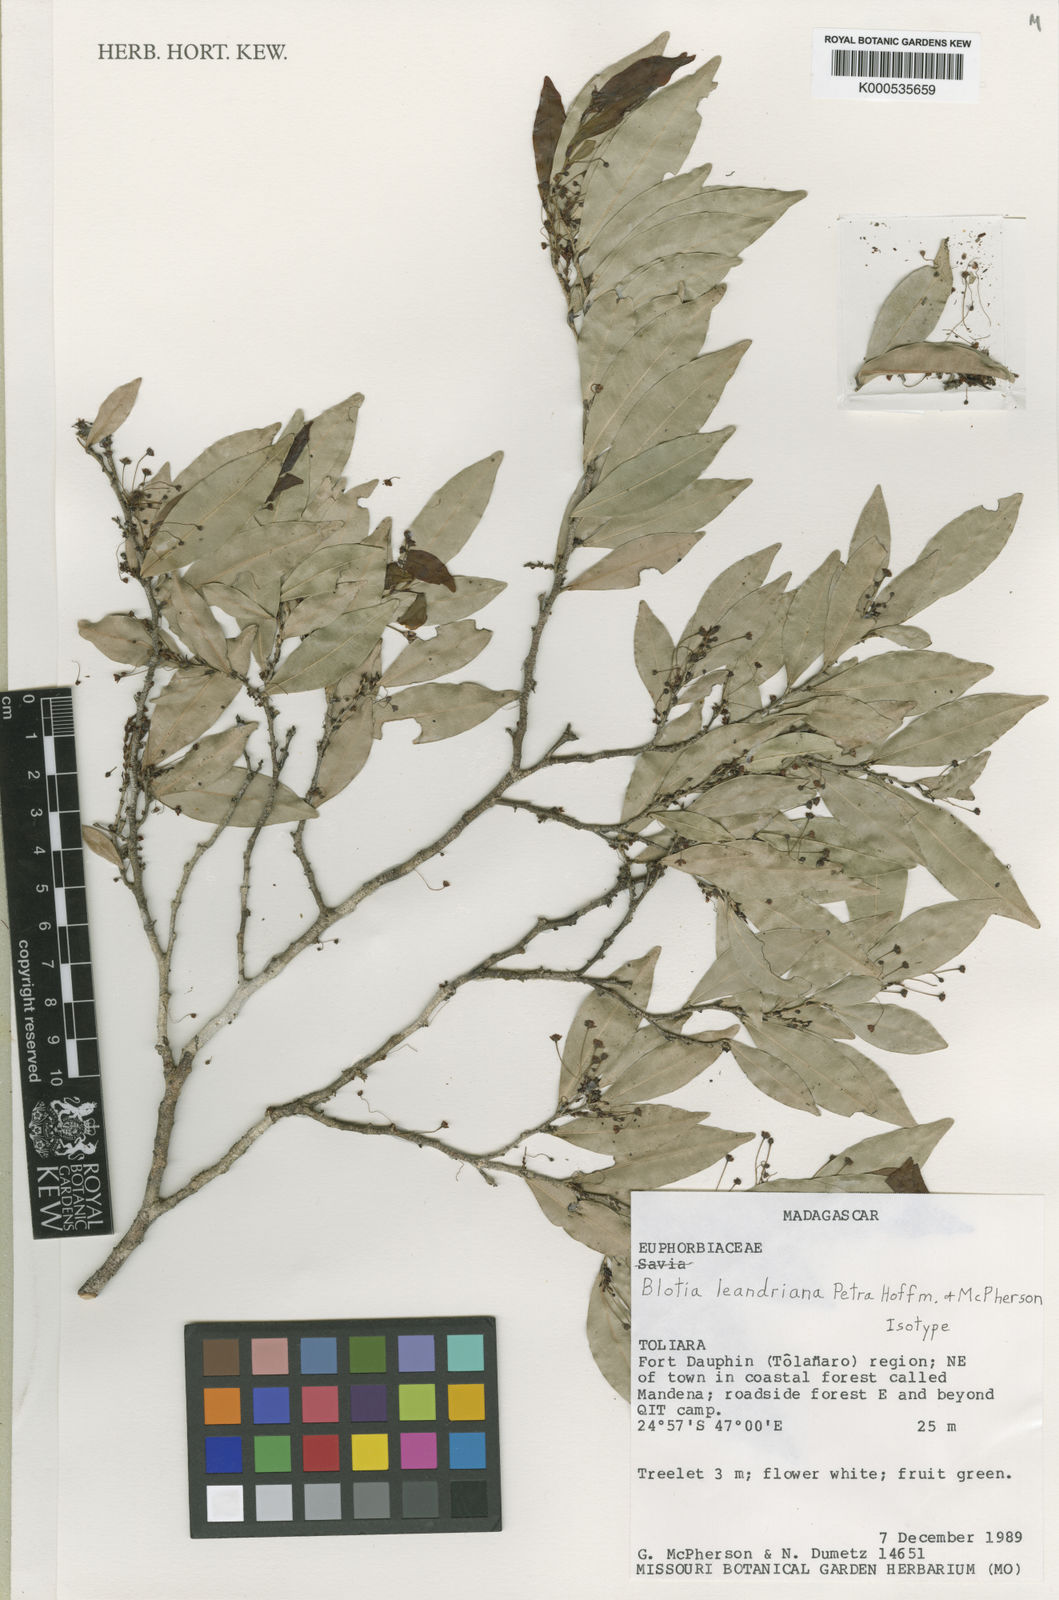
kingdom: Plantae
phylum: Tracheophyta
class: Magnoliopsida
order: Malpighiales
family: Phyllanthaceae
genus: Wielandia
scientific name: Wielandia leandriana
